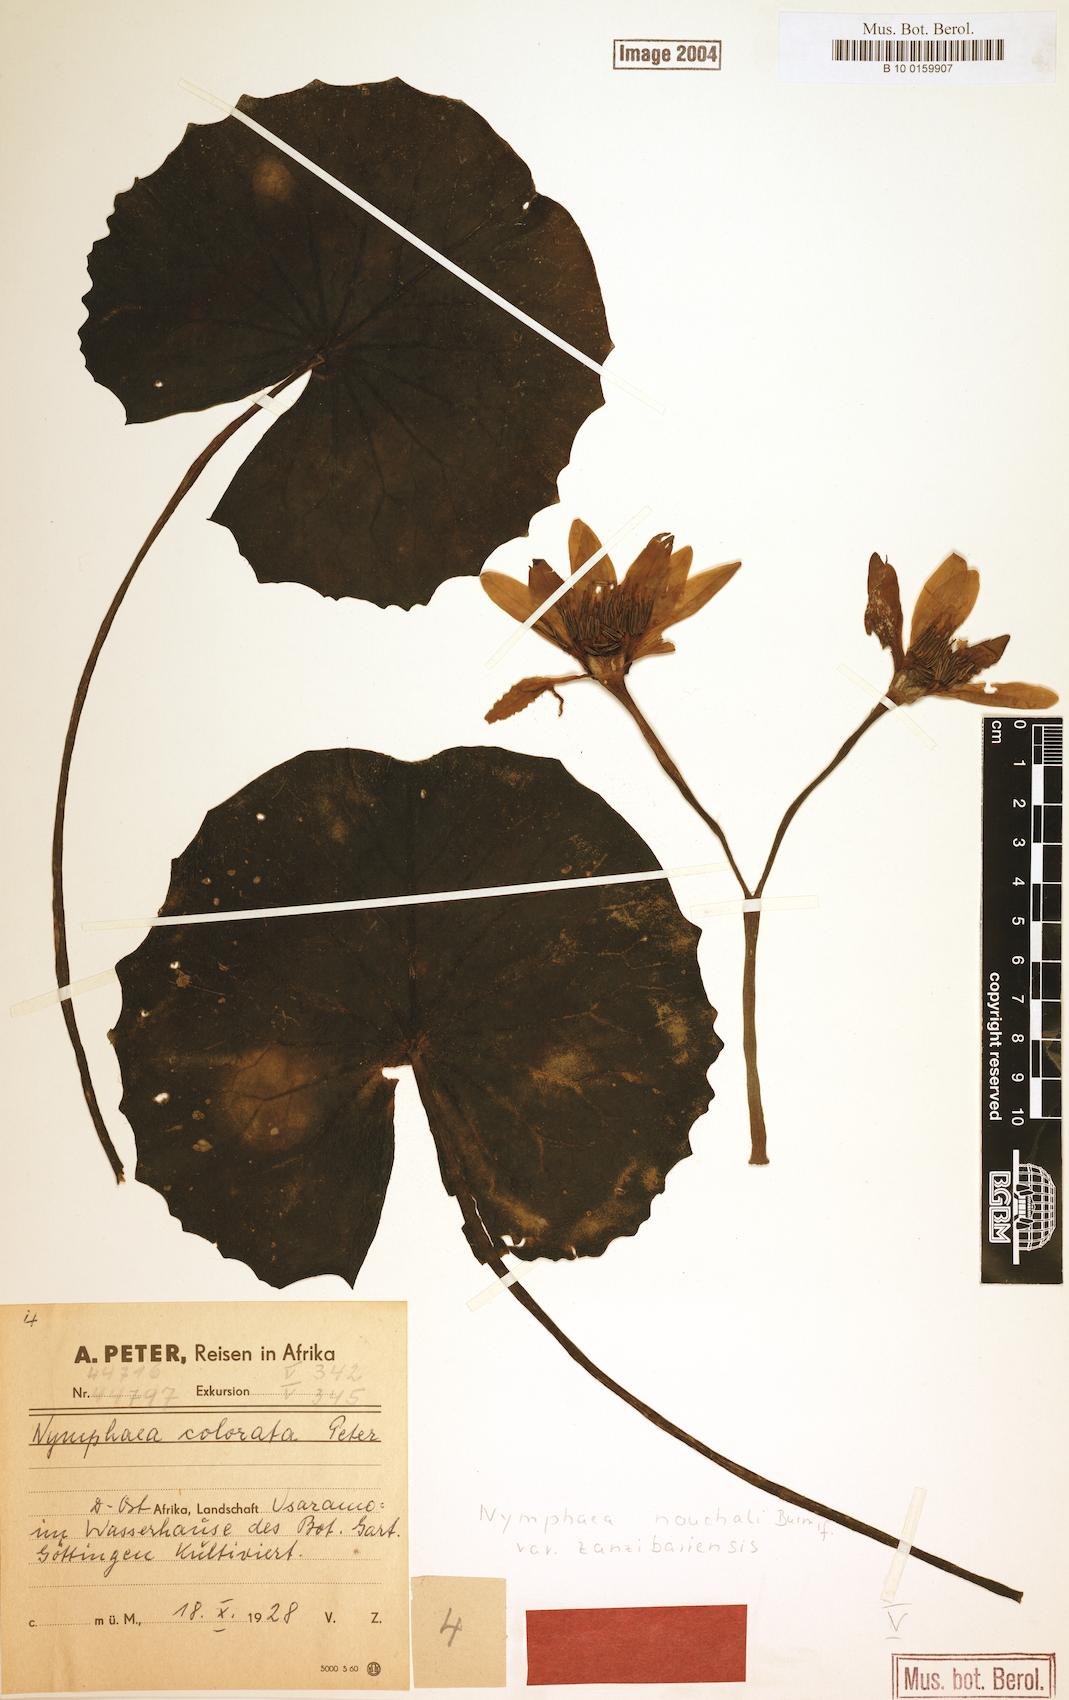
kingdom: Plantae
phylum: Tracheophyta
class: Magnoliopsida
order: Nymphaeales
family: Nymphaeaceae
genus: Nymphaea
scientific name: Nymphaea nouchali
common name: Blue lotus
